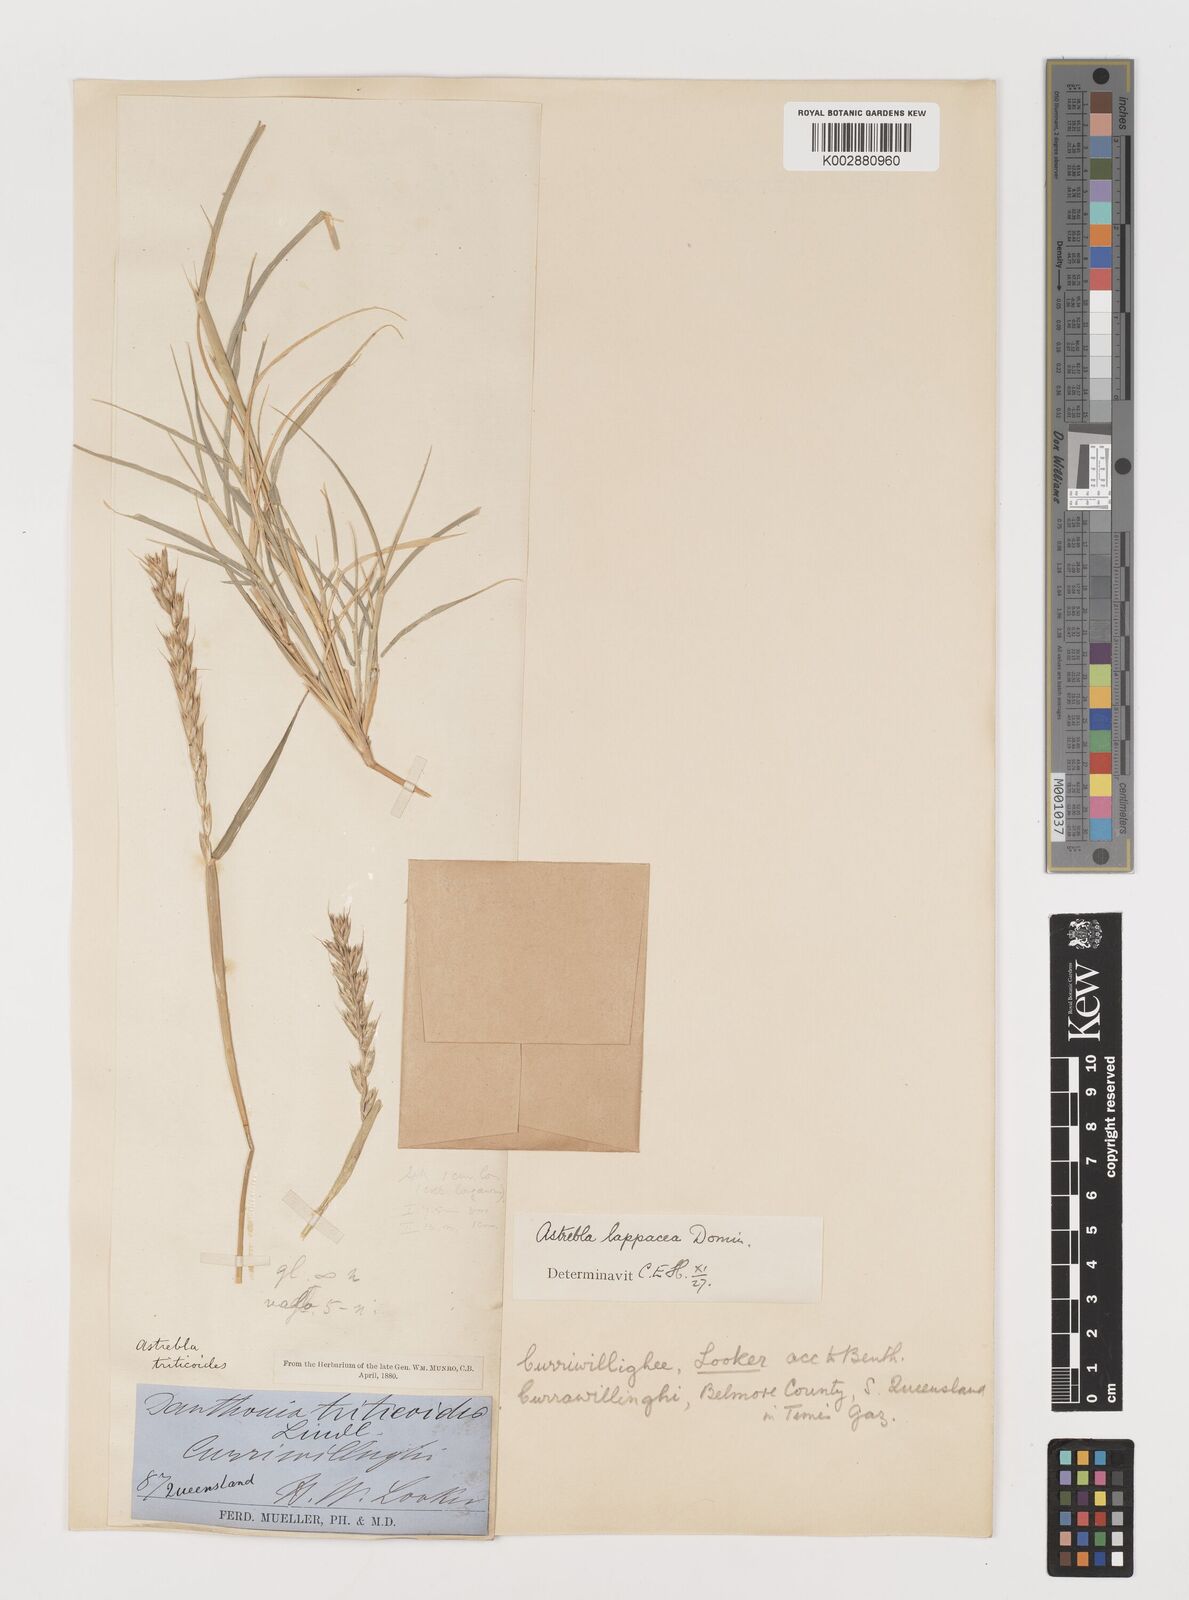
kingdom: Plantae
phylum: Tracheophyta
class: Liliopsida
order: Poales
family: Poaceae
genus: Astrebla
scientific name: Astrebla lappacea
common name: Curly mitchell grass
